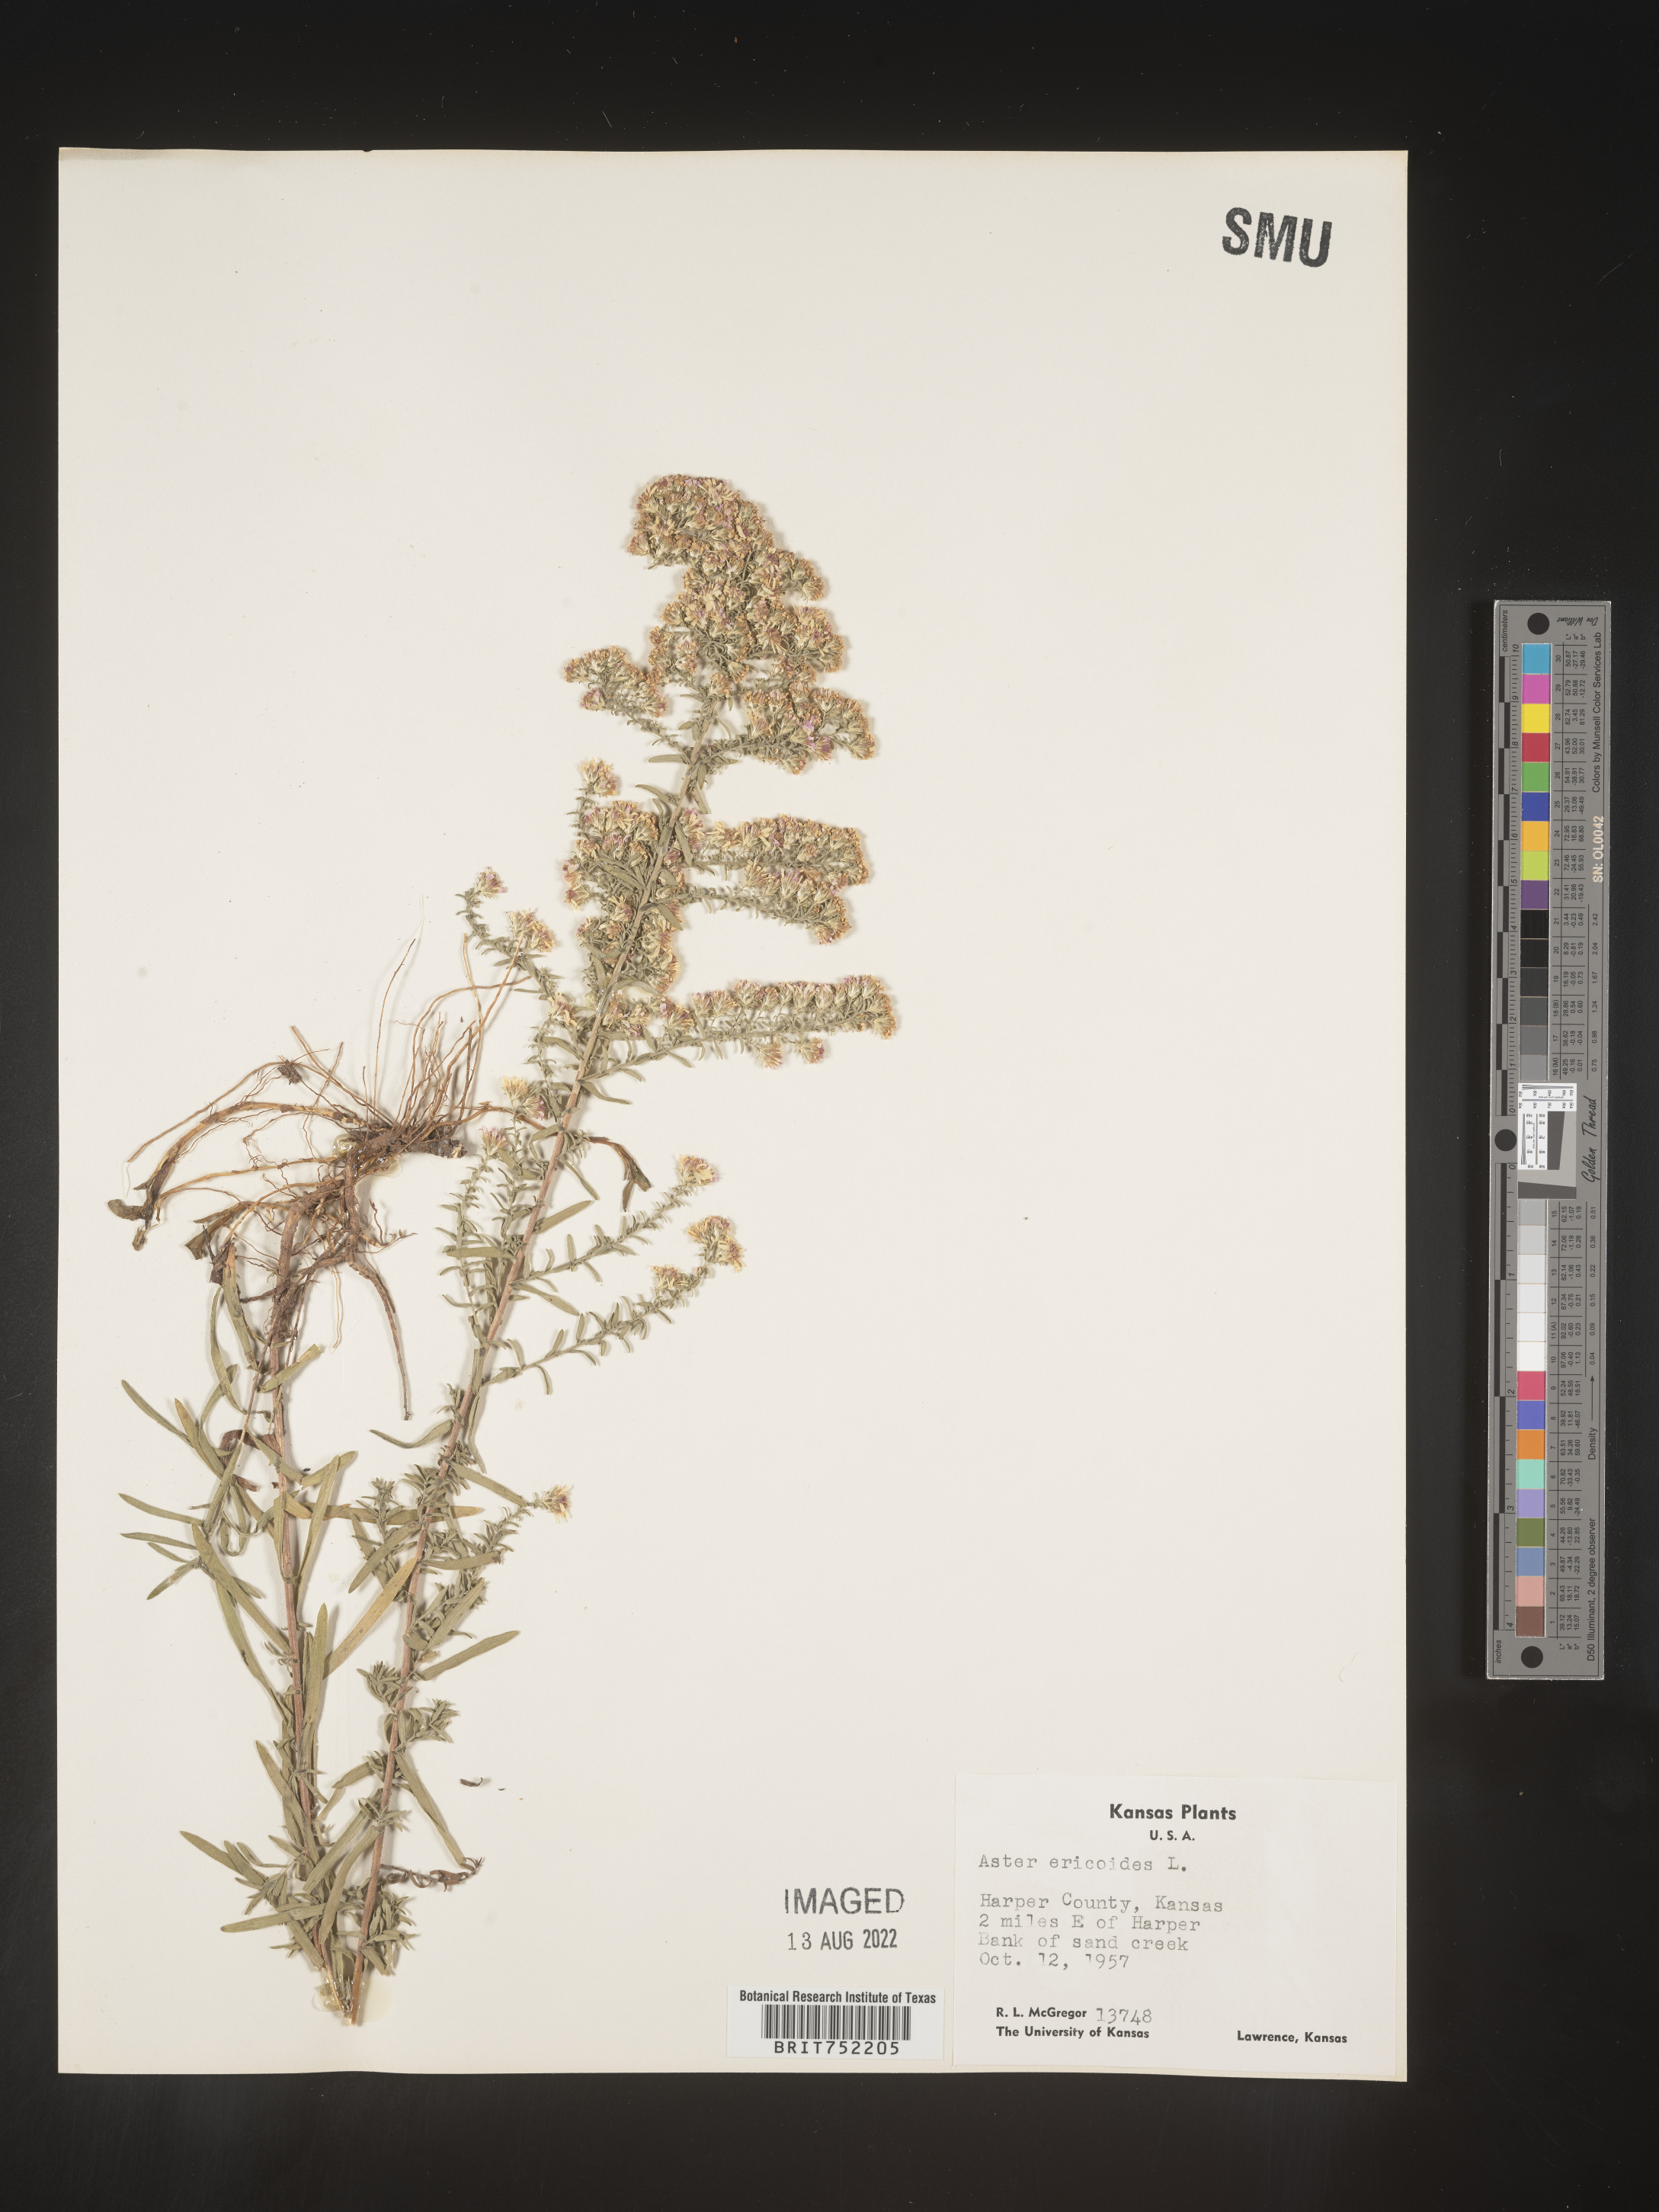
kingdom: Plantae
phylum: Tracheophyta
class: Magnoliopsida
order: Asterales
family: Asteraceae
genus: Symphyotrichum
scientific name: Symphyotrichum ericoides
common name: Heath aster
